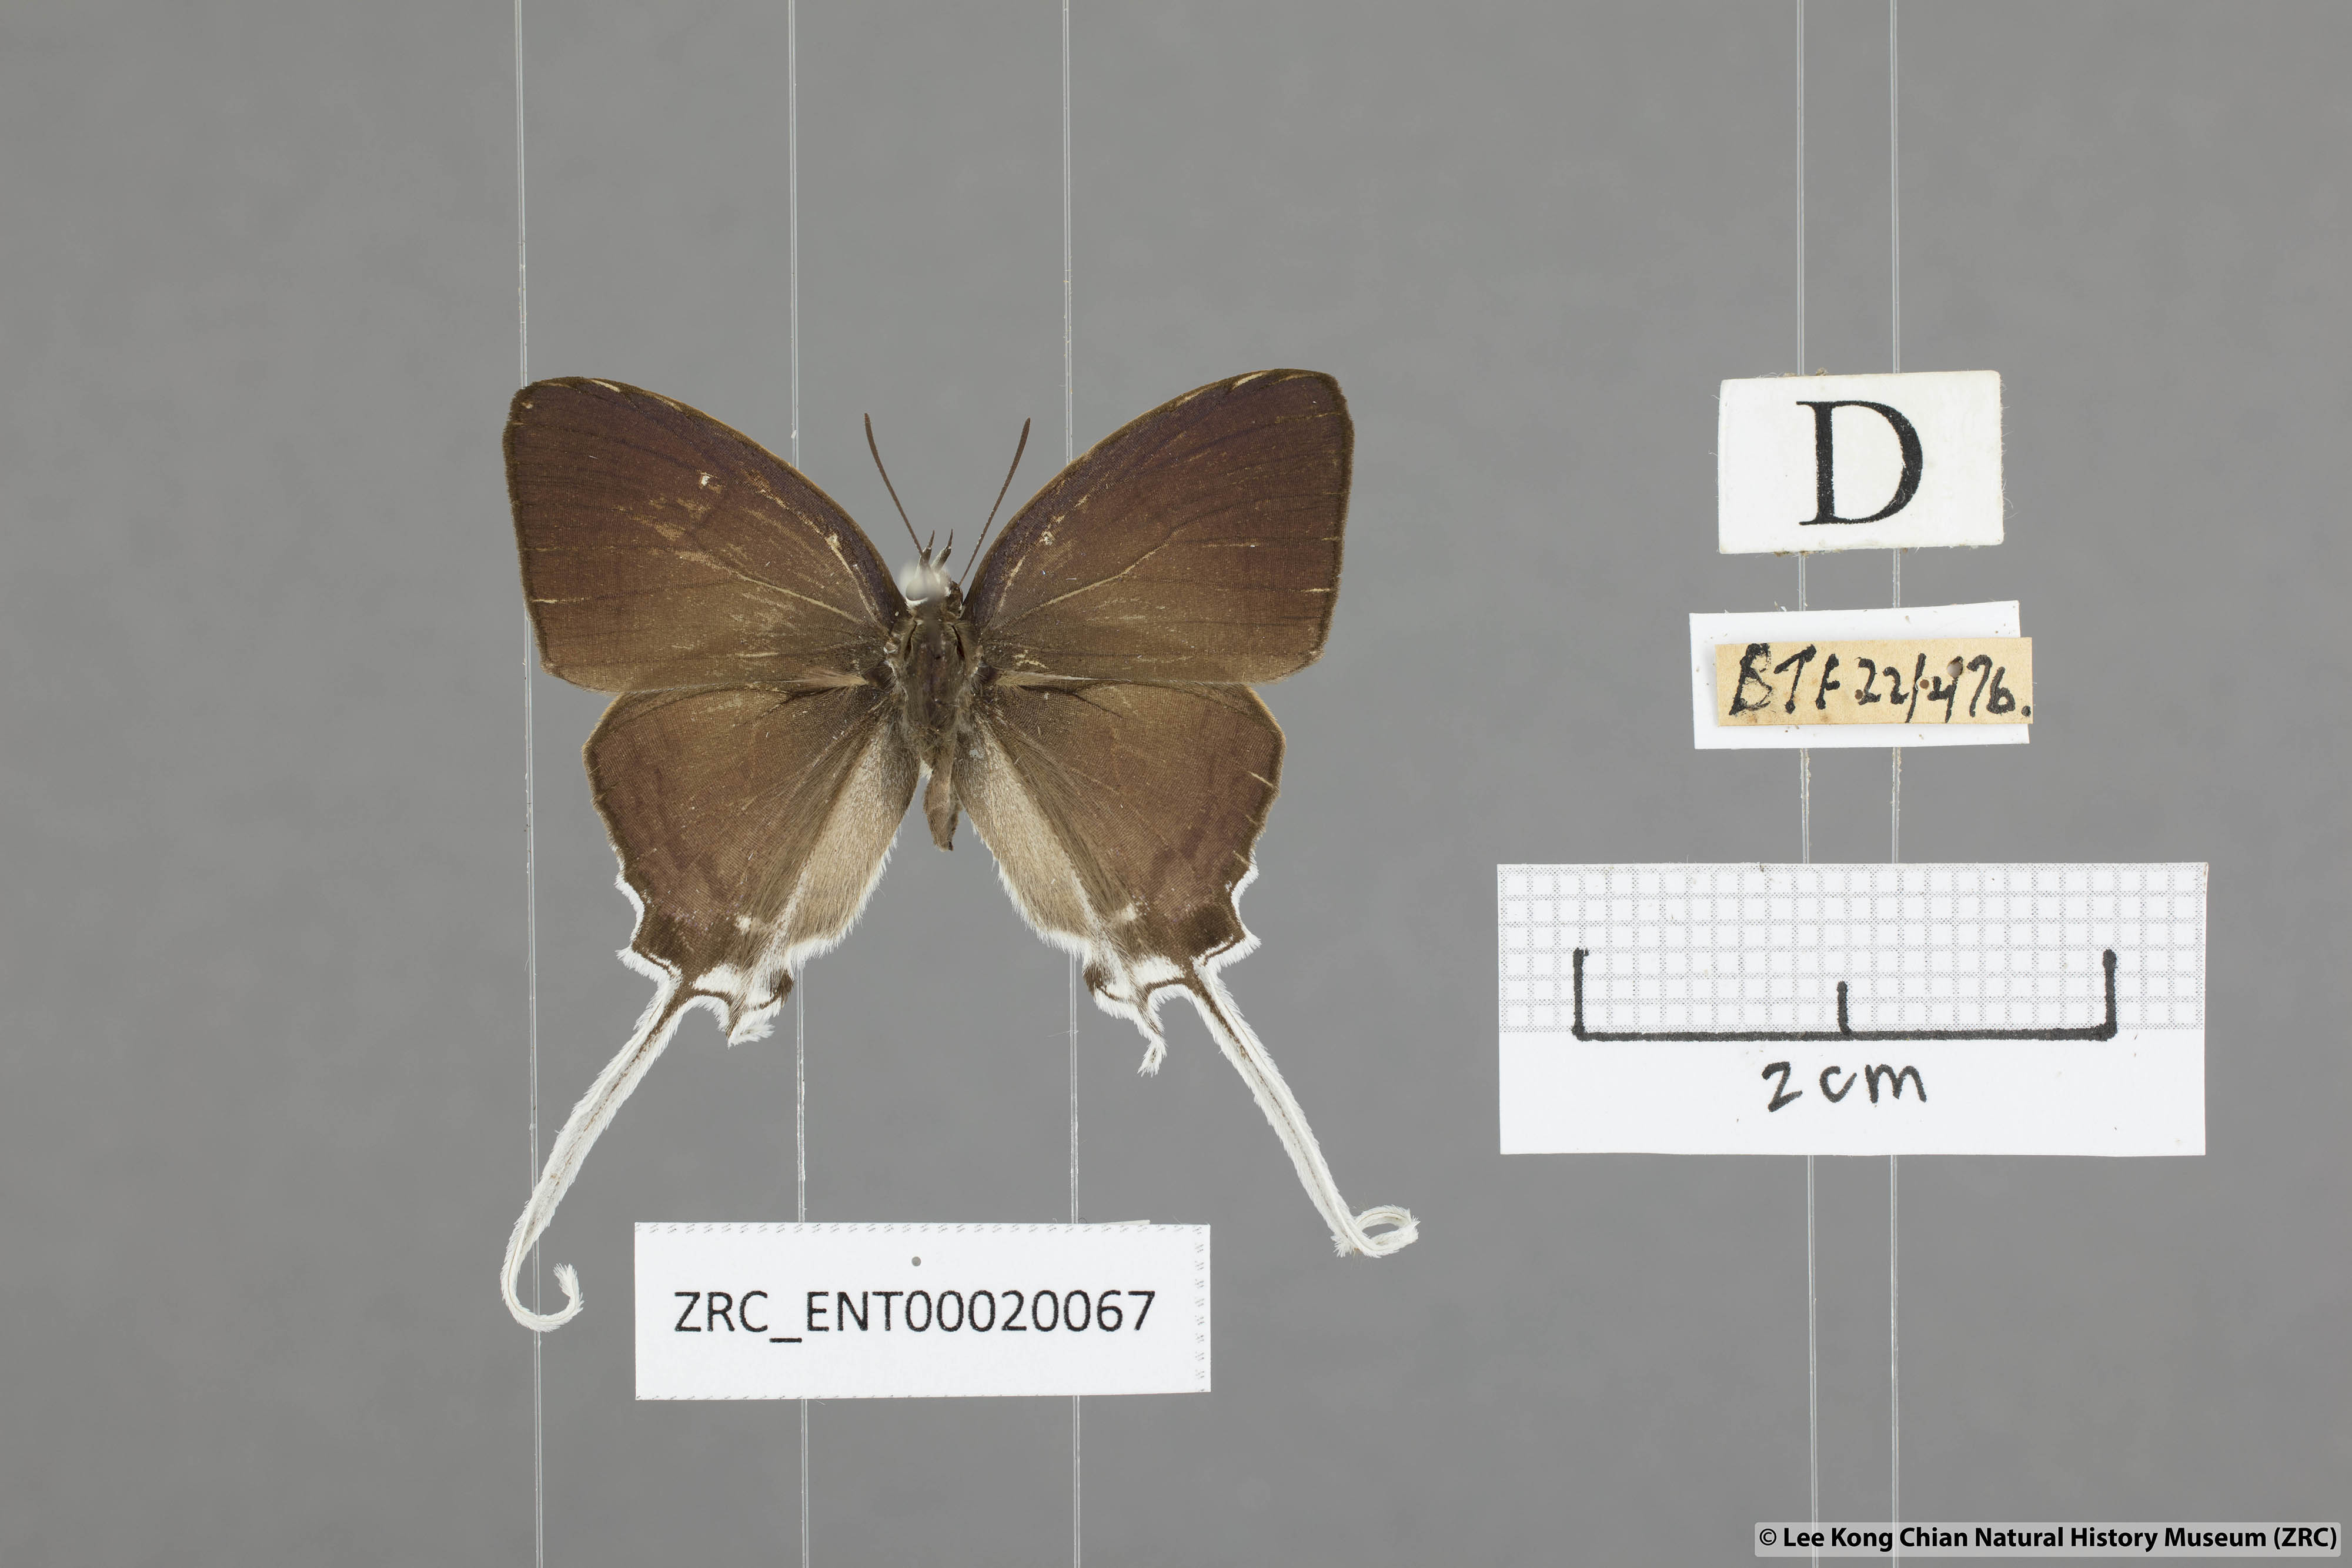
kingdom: Animalia
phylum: Arthropoda
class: Insecta
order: Lepidoptera
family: Lycaenidae
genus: Cheritra
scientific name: Cheritra freja
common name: Common imperial
